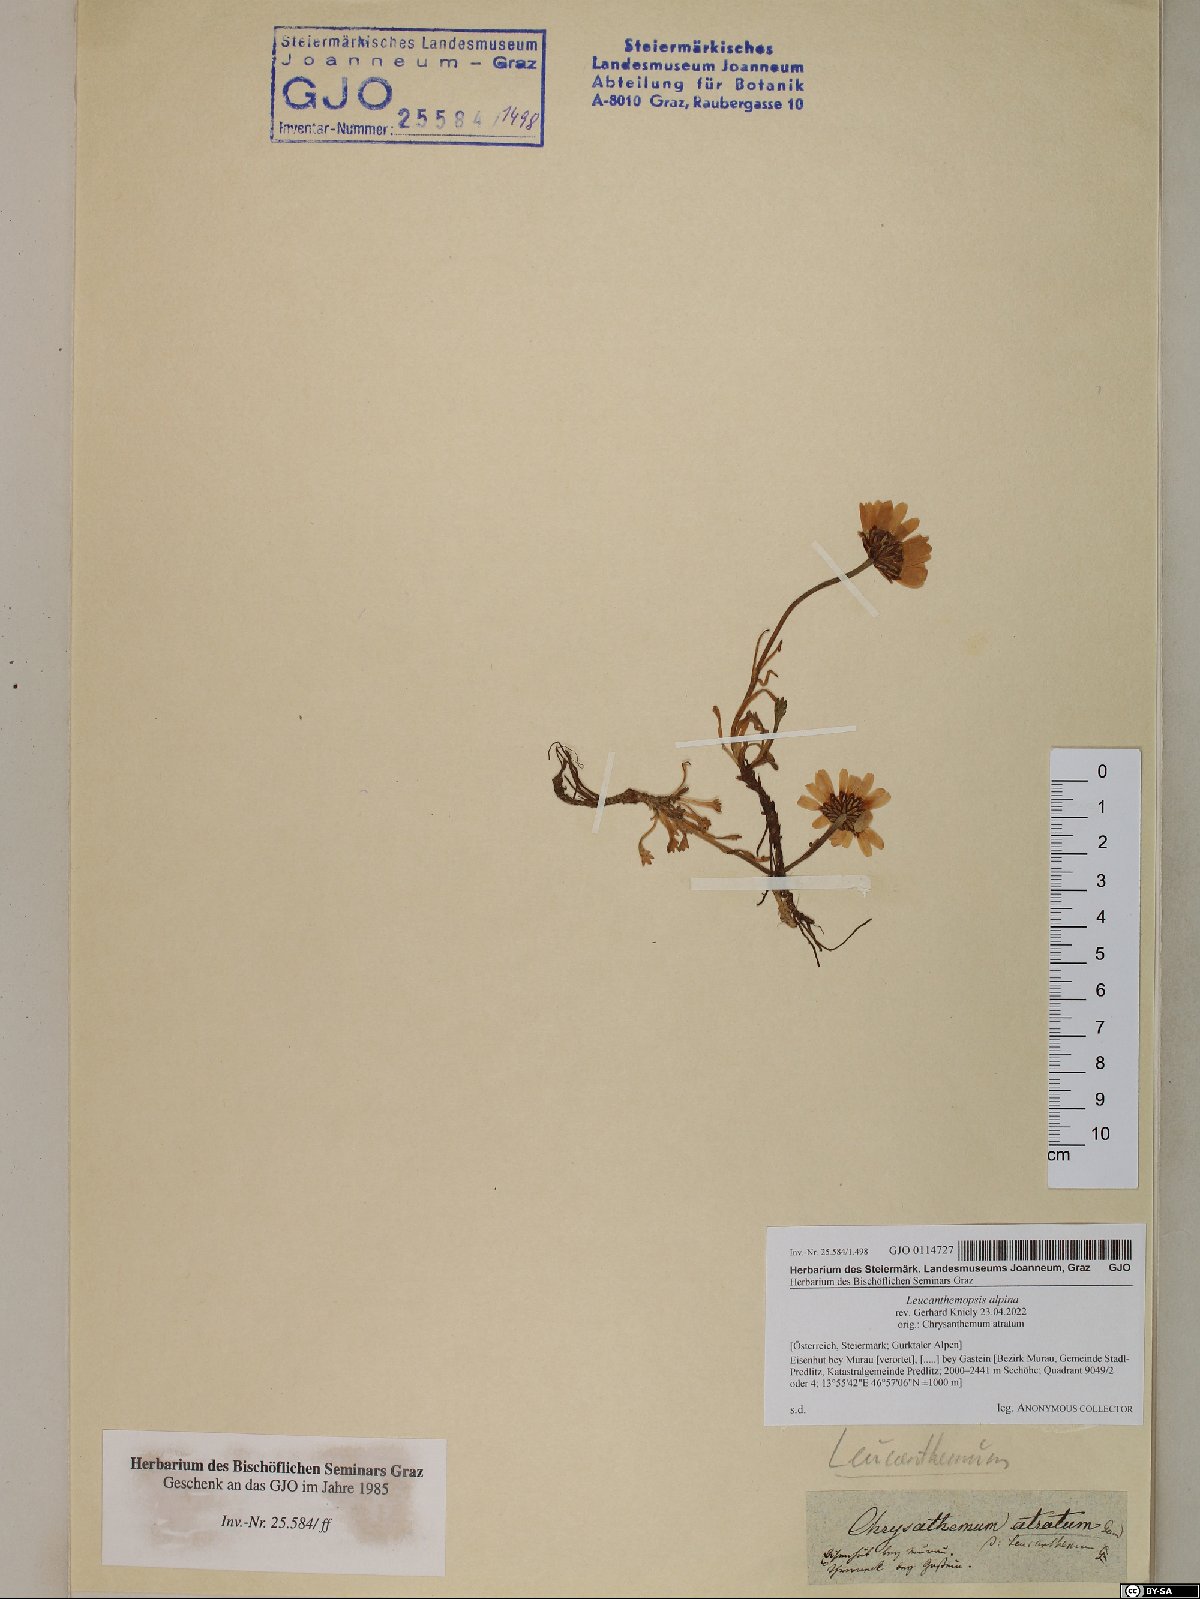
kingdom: Plantae
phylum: Tracheophyta
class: Magnoliopsida
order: Asterales
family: Asteraceae
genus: Leucanthemopsis
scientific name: Leucanthemopsis alpina
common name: Alpine moon daisy
